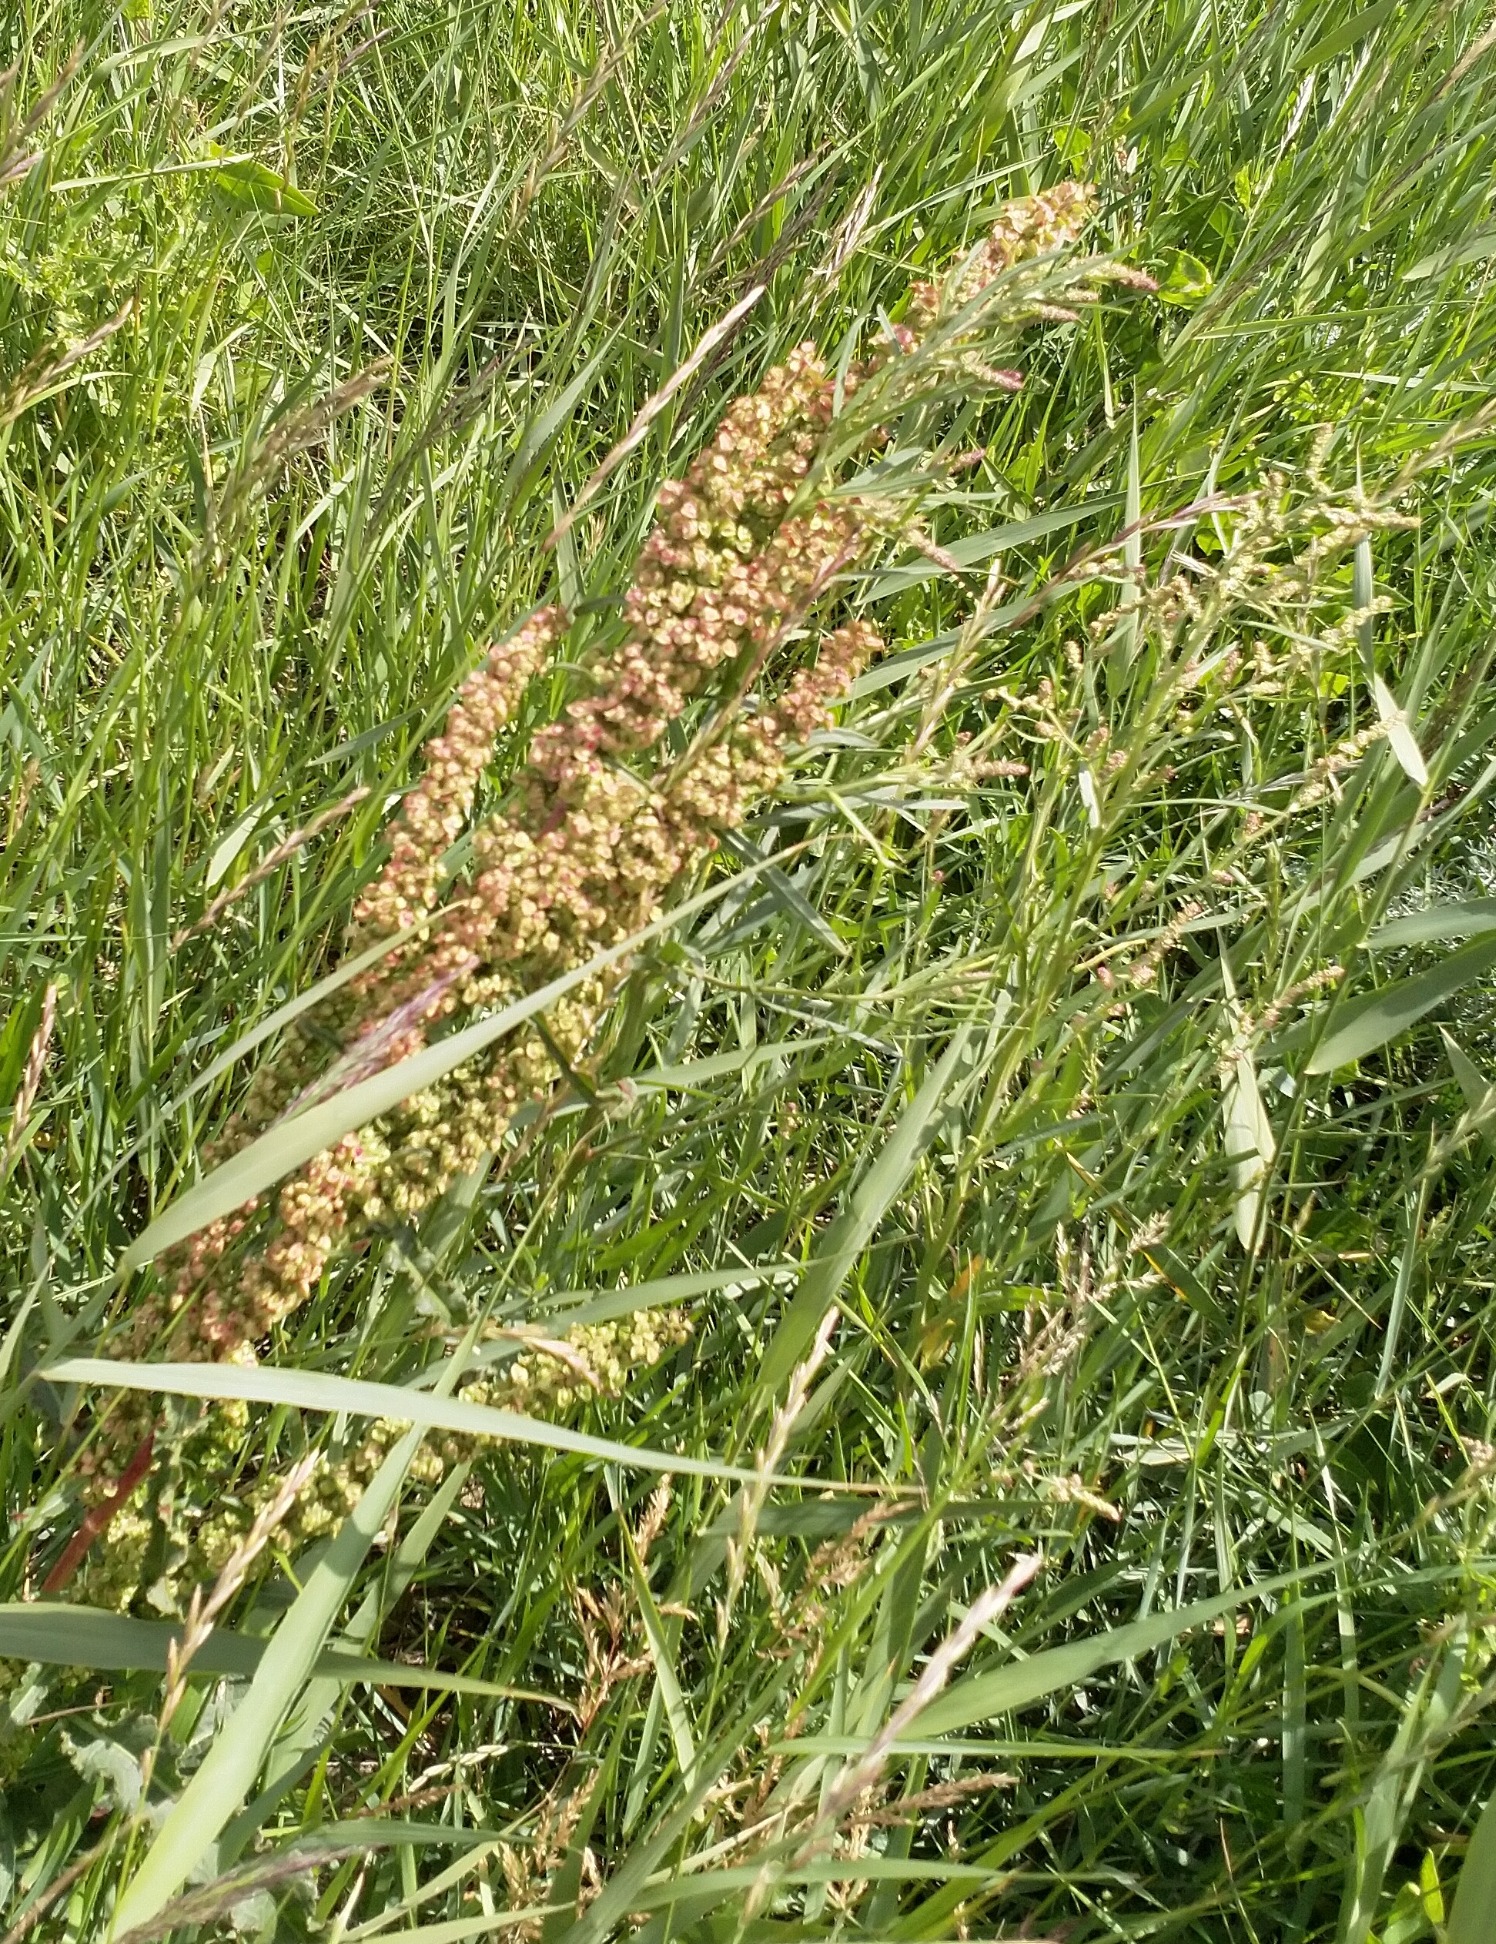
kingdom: Plantae
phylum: Tracheophyta
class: Magnoliopsida
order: Caryophyllales
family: Polygonaceae
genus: Rumex
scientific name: Rumex crispus
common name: Kruset skræppe
